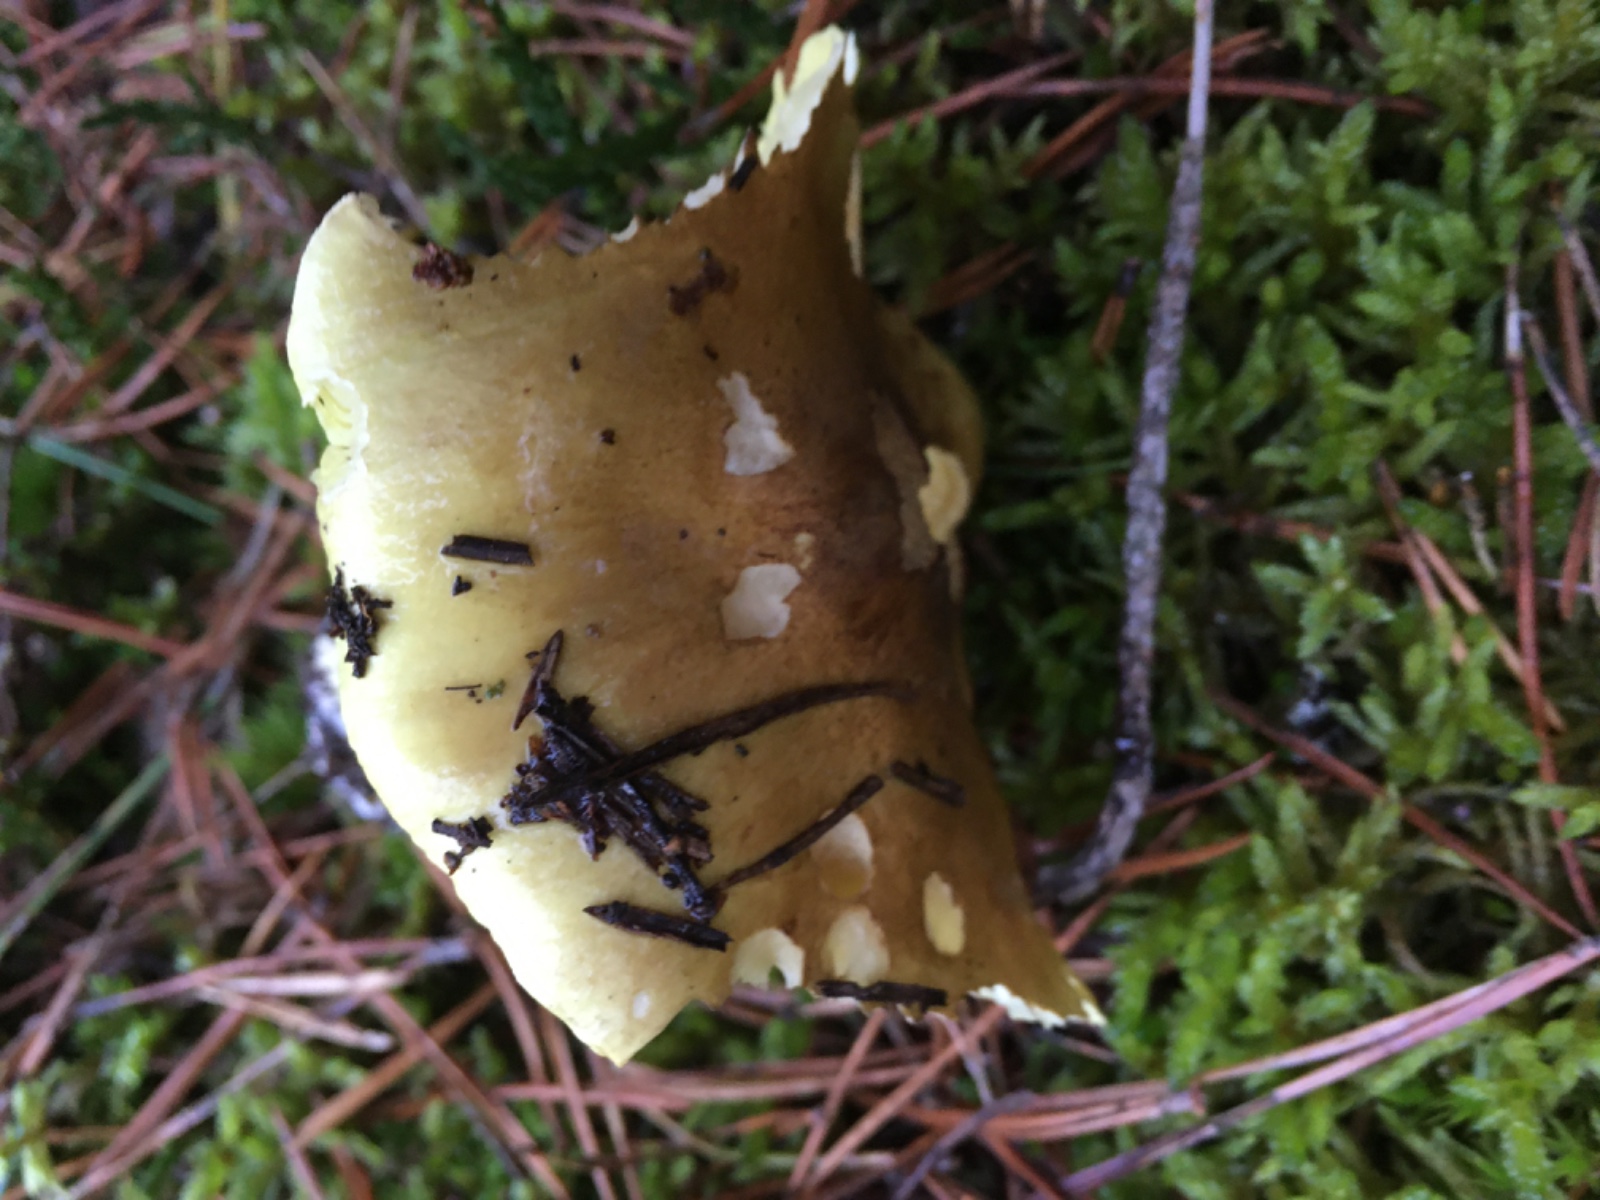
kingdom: Fungi
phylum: Basidiomycota
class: Agaricomycetes
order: Agaricales
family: Tricholomataceae
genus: Tricholoma
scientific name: Tricholoma equestre
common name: ægte ridderhat
